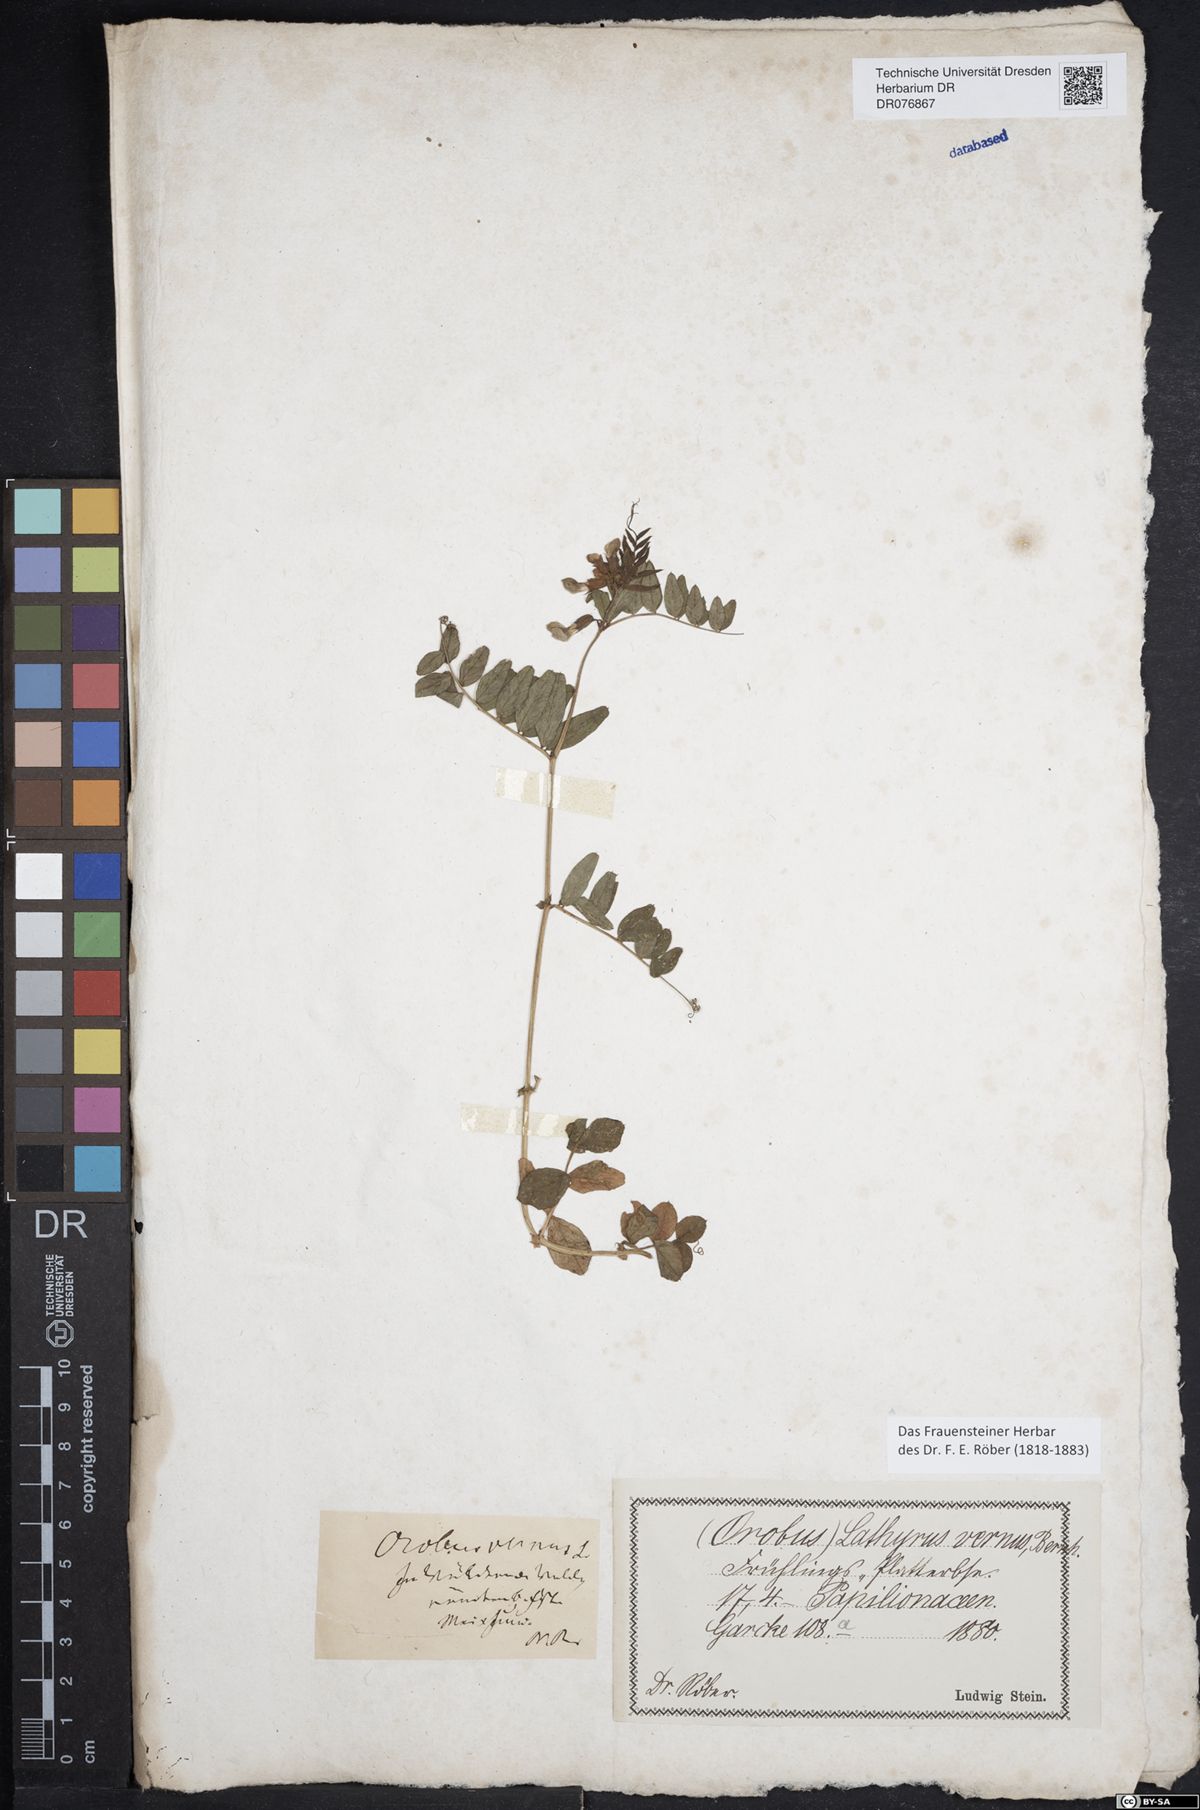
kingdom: Plantae
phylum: Tracheophyta
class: Magnoliopsida
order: Fabales
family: Fabaceae
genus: Vicia
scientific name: Vicia sepium
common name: Bush vetch
